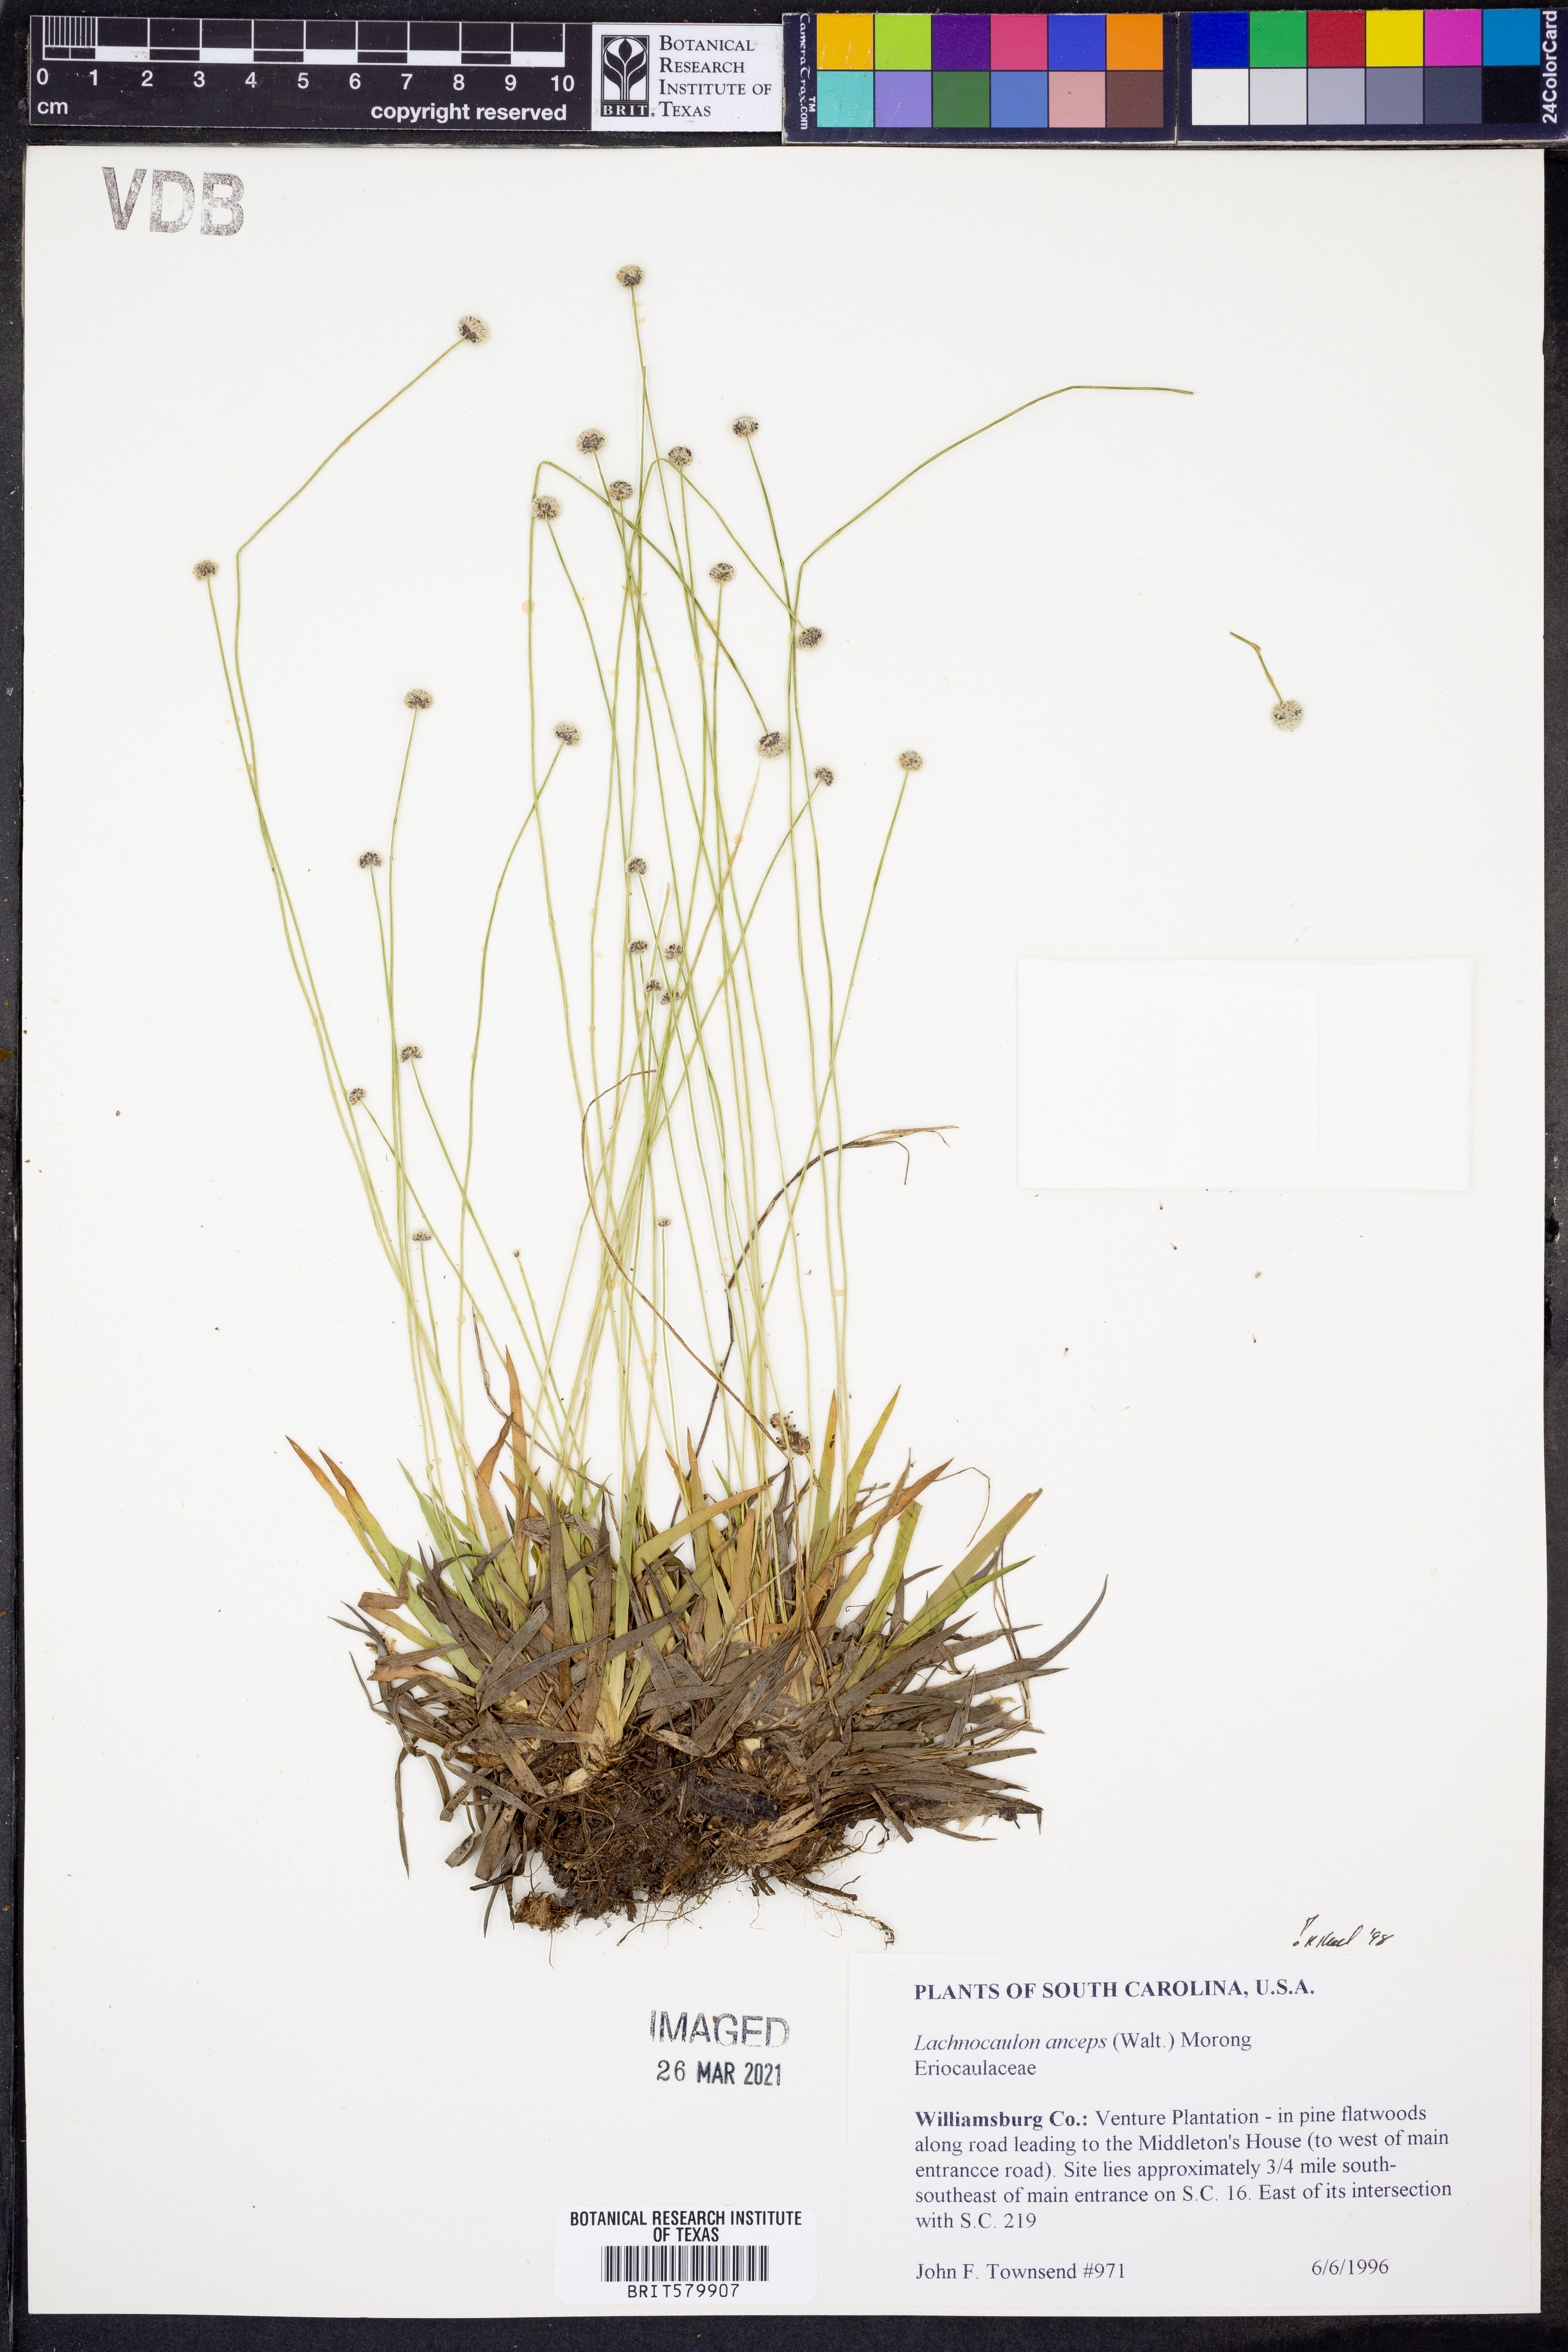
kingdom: Plantae
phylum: Tracheophyta
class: Liliopsida
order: Poales
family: Eriocaulaceae
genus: Paepalanthus
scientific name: Paepalanthus anceps
